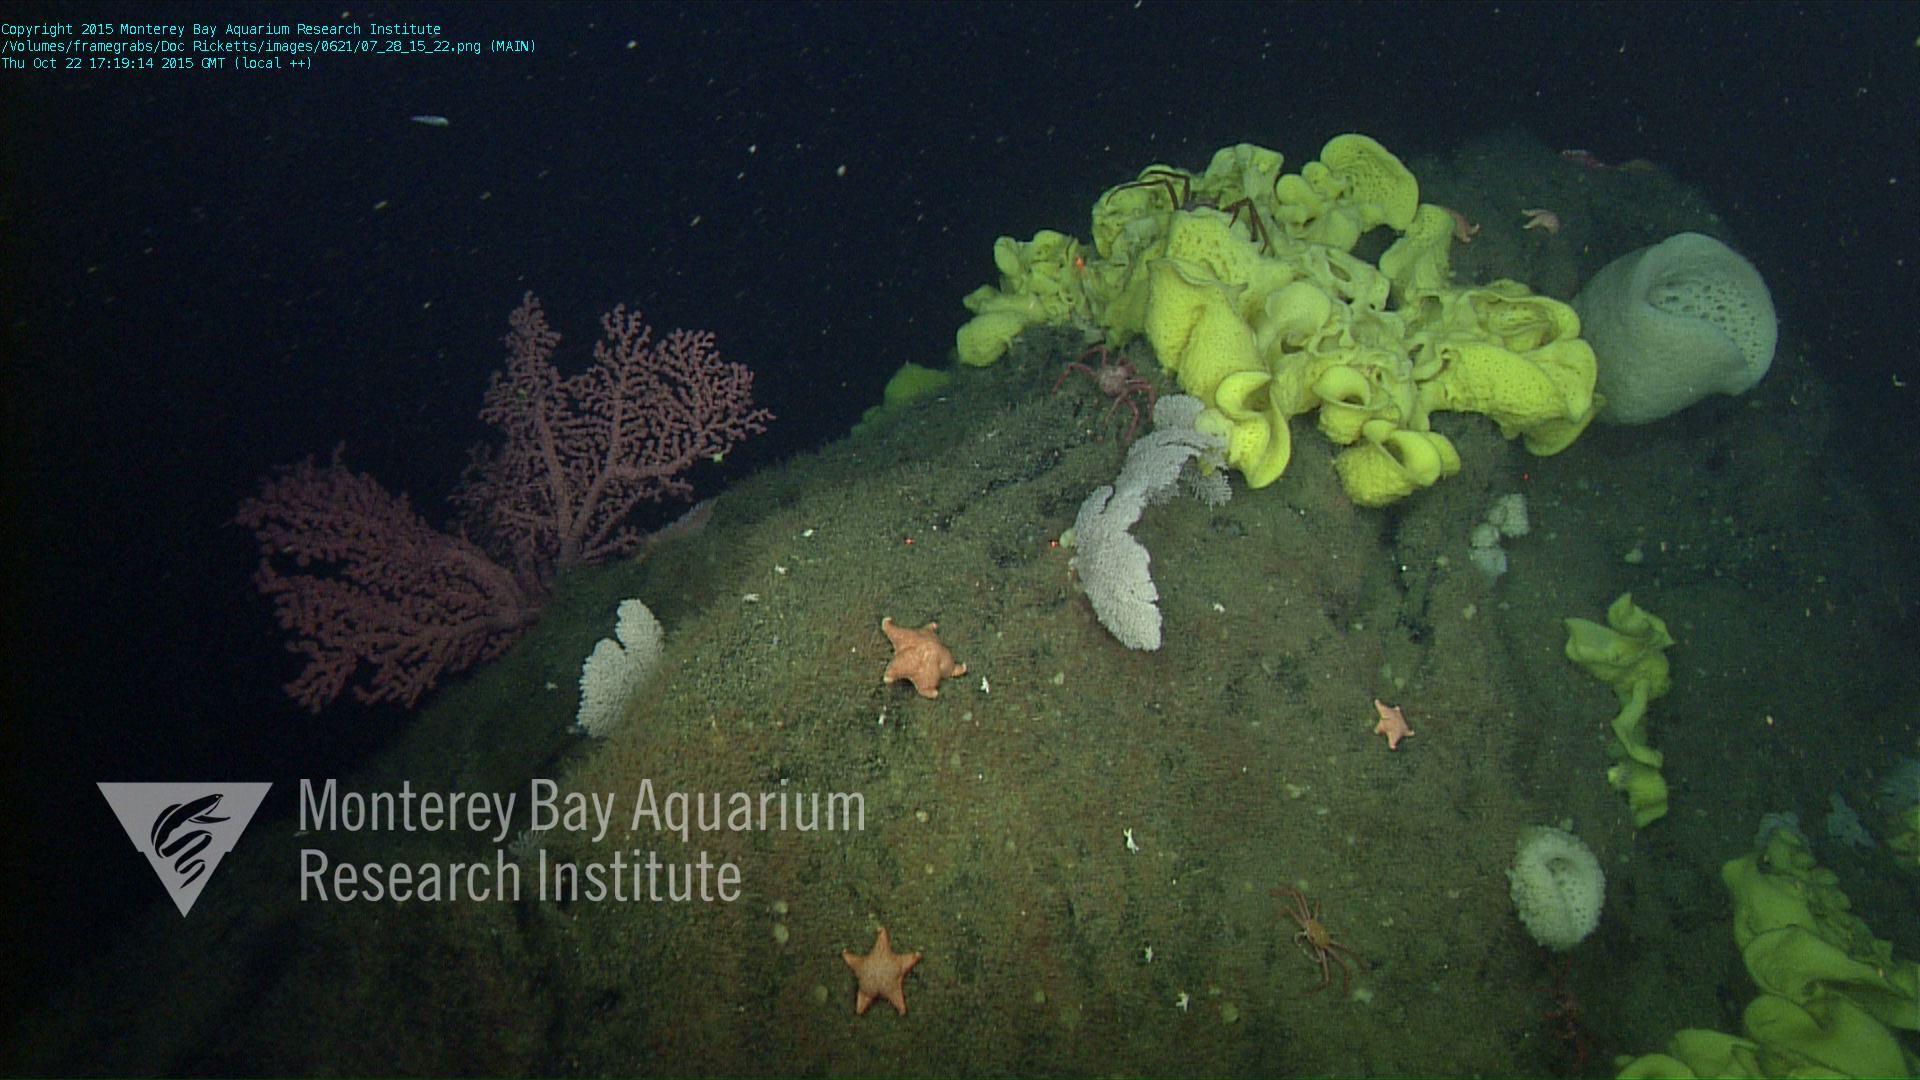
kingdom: Animalia
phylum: Cnidaria
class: Anthozoa
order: Scleralcyonacea
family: Primnoidae
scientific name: Primnoidae
